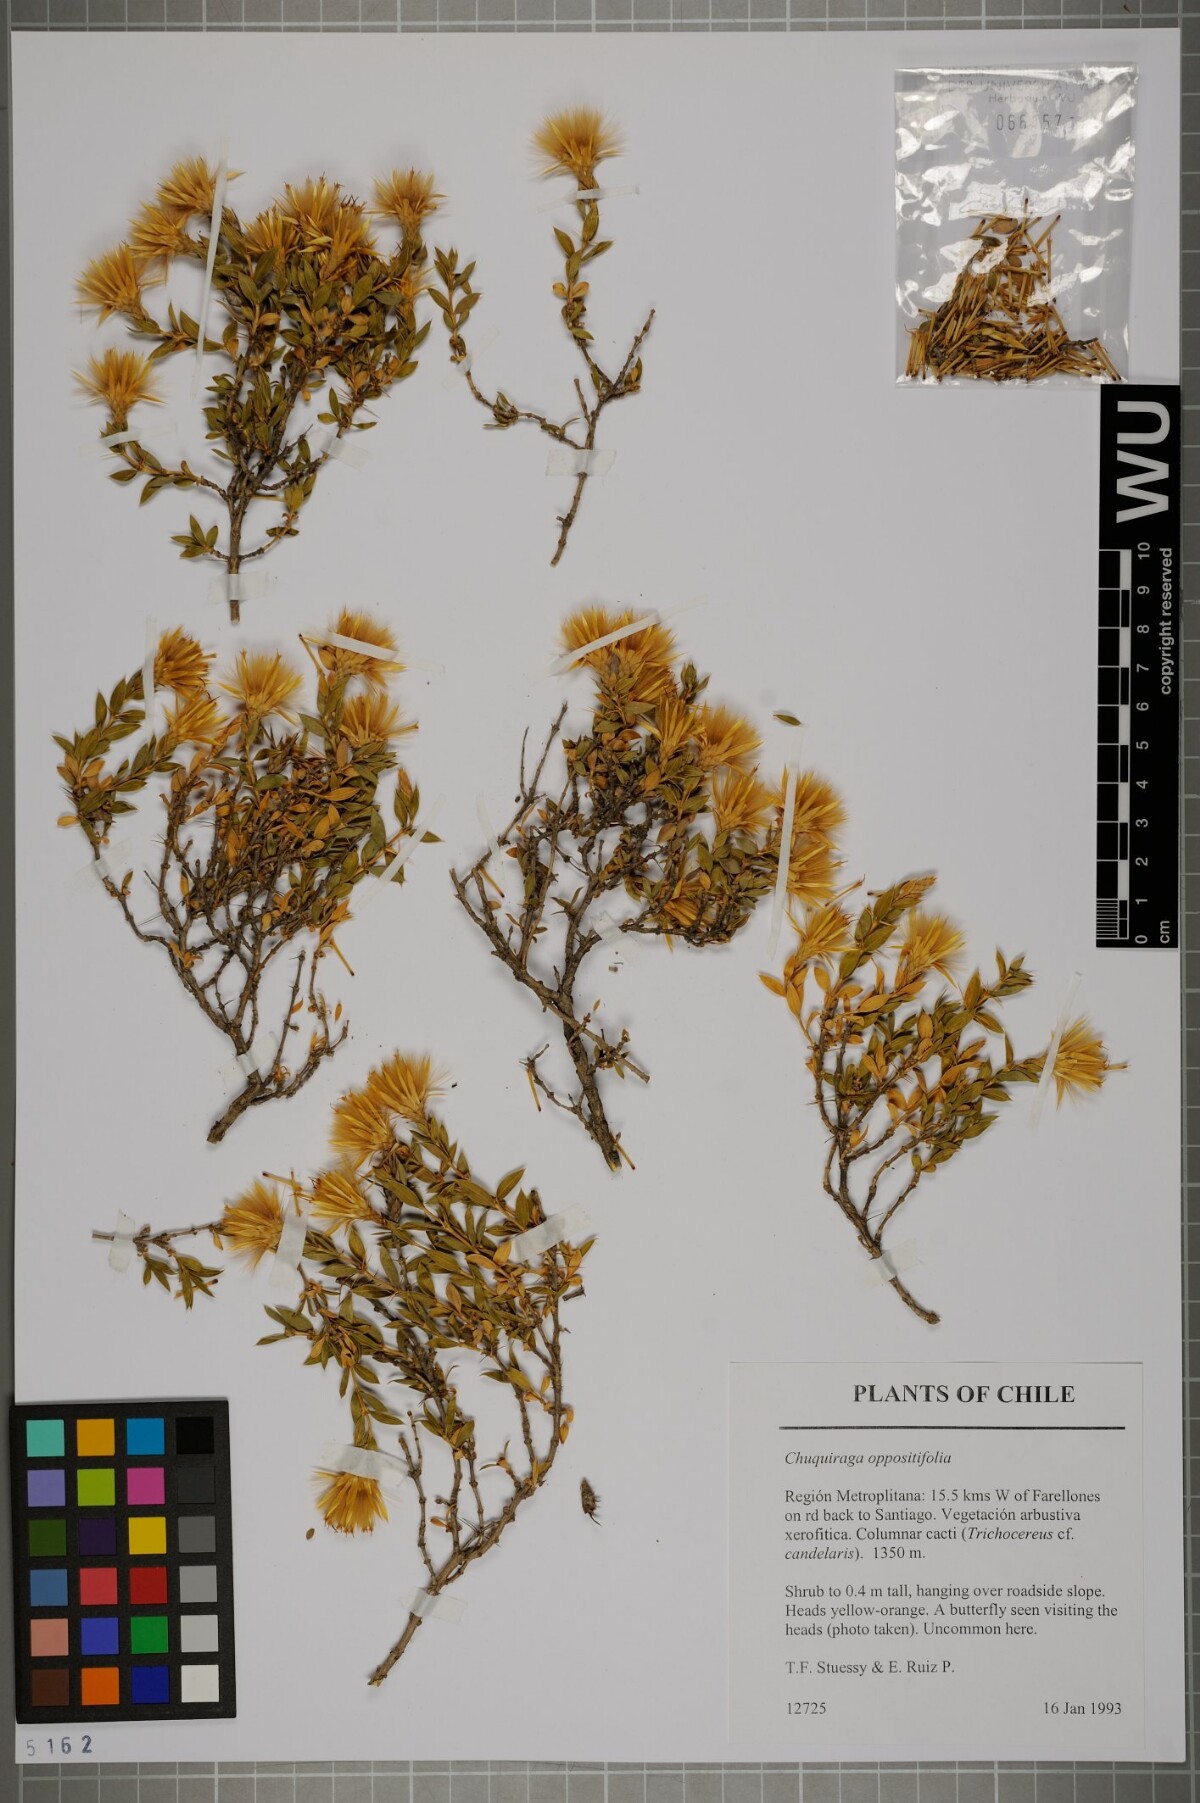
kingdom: Plantae
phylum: Tracheophyta
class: Magnoliopsida
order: Asterales
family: Asteraceae
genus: Chuquiraga
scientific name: Chuquiraga oppositifolia
